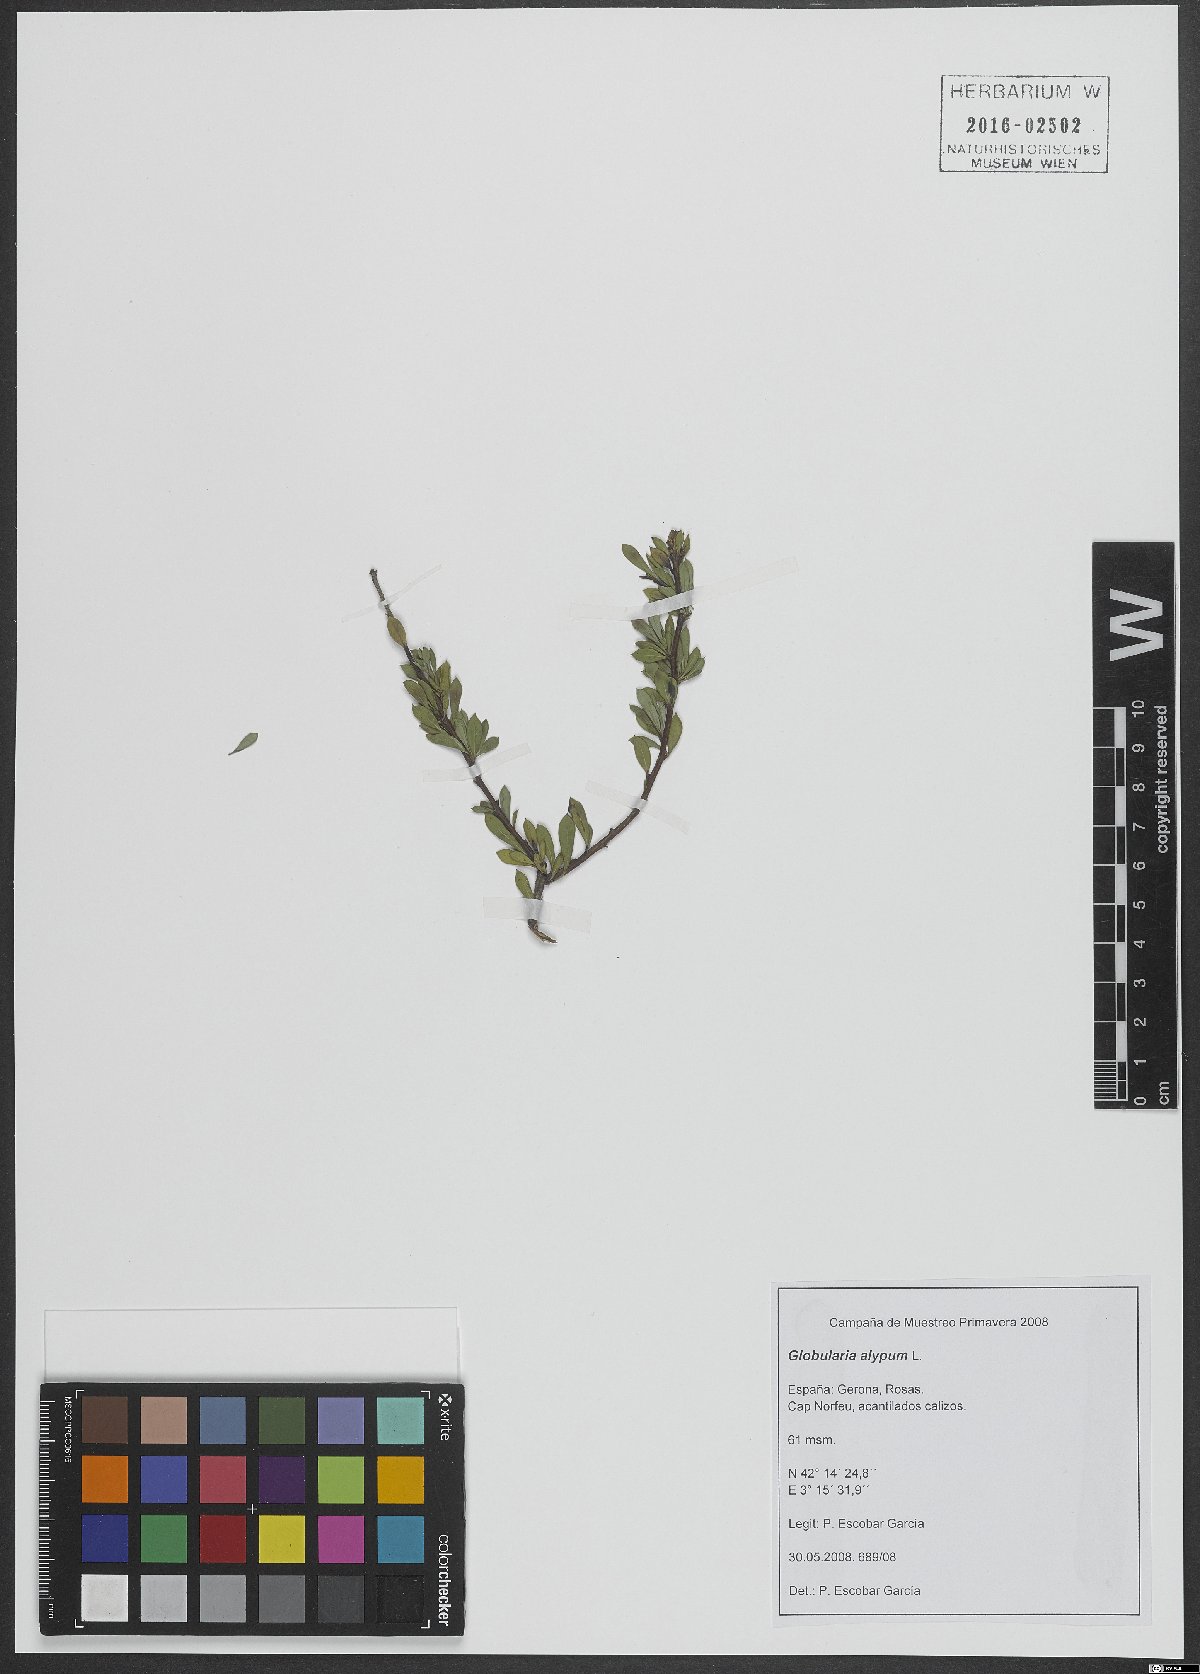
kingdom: Plantae
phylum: Tracheophyta
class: Magnoliopsida
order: Lamiales
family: Plantaginaceae
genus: Globularia
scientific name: Globularia alypum
